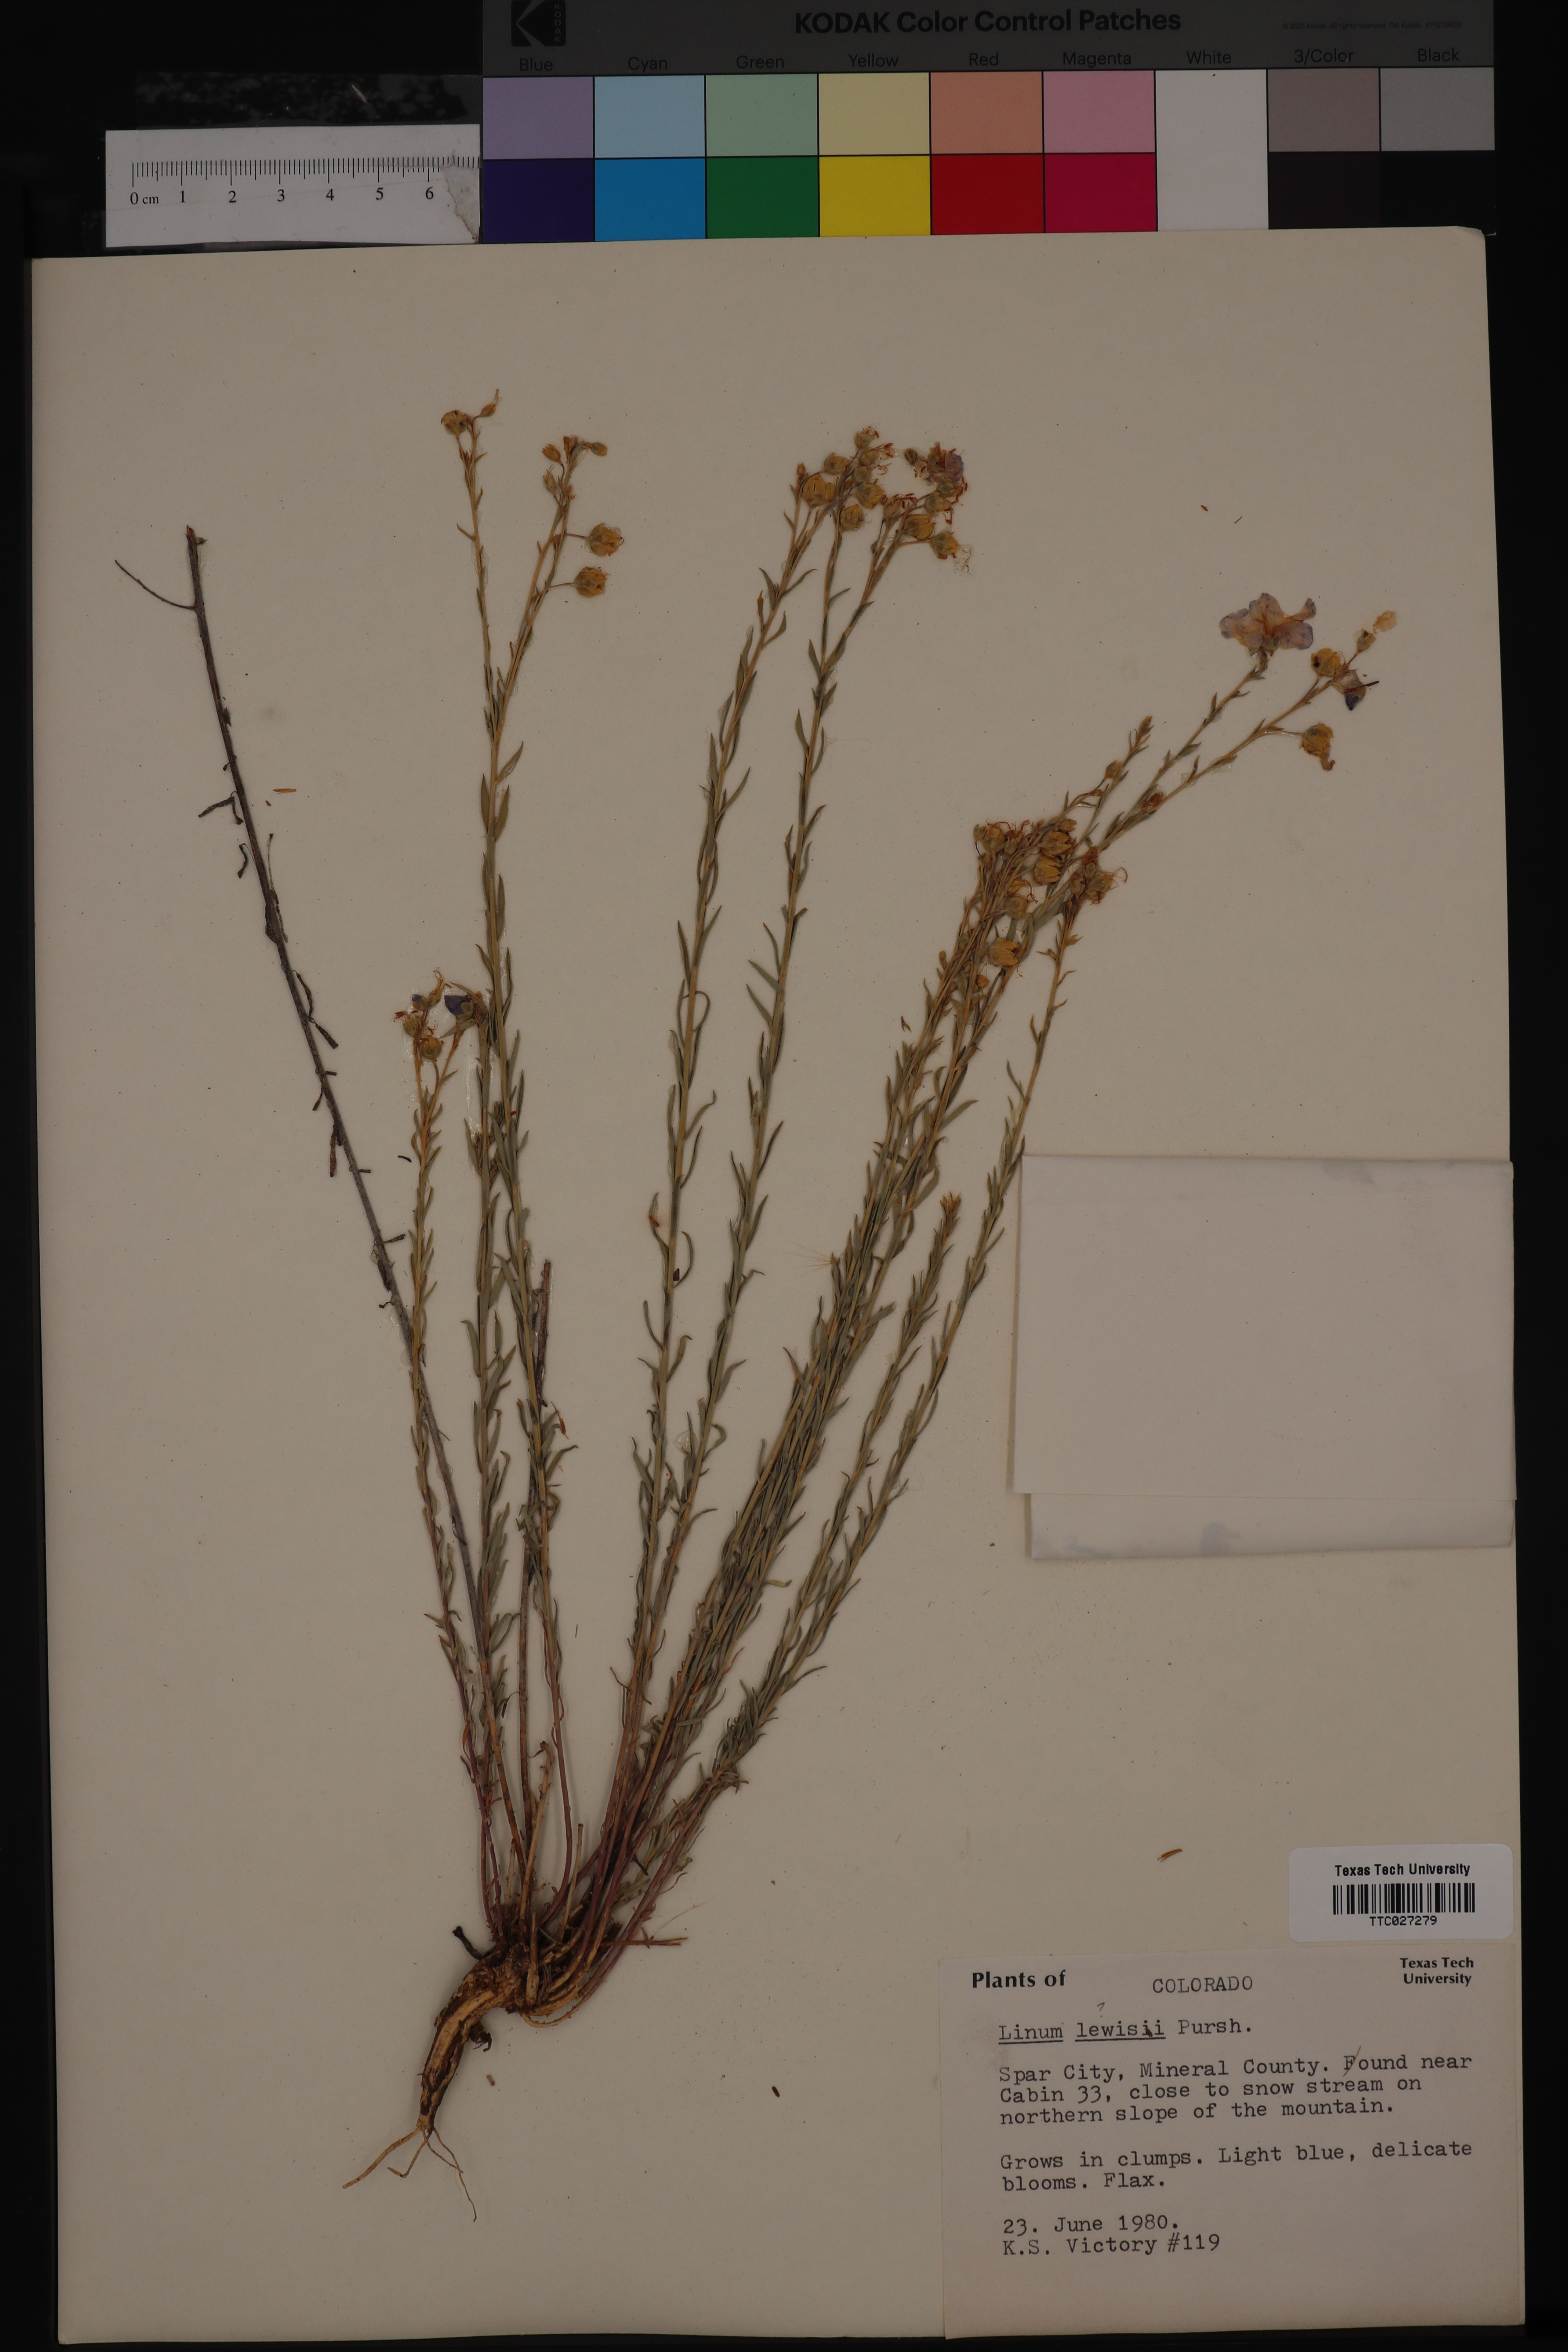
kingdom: Plantae
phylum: Tracheophyta
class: Magnoliopsida
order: Malpighiales
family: Linaceae
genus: Linum
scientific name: Linum lewisii
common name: Prairie flax
